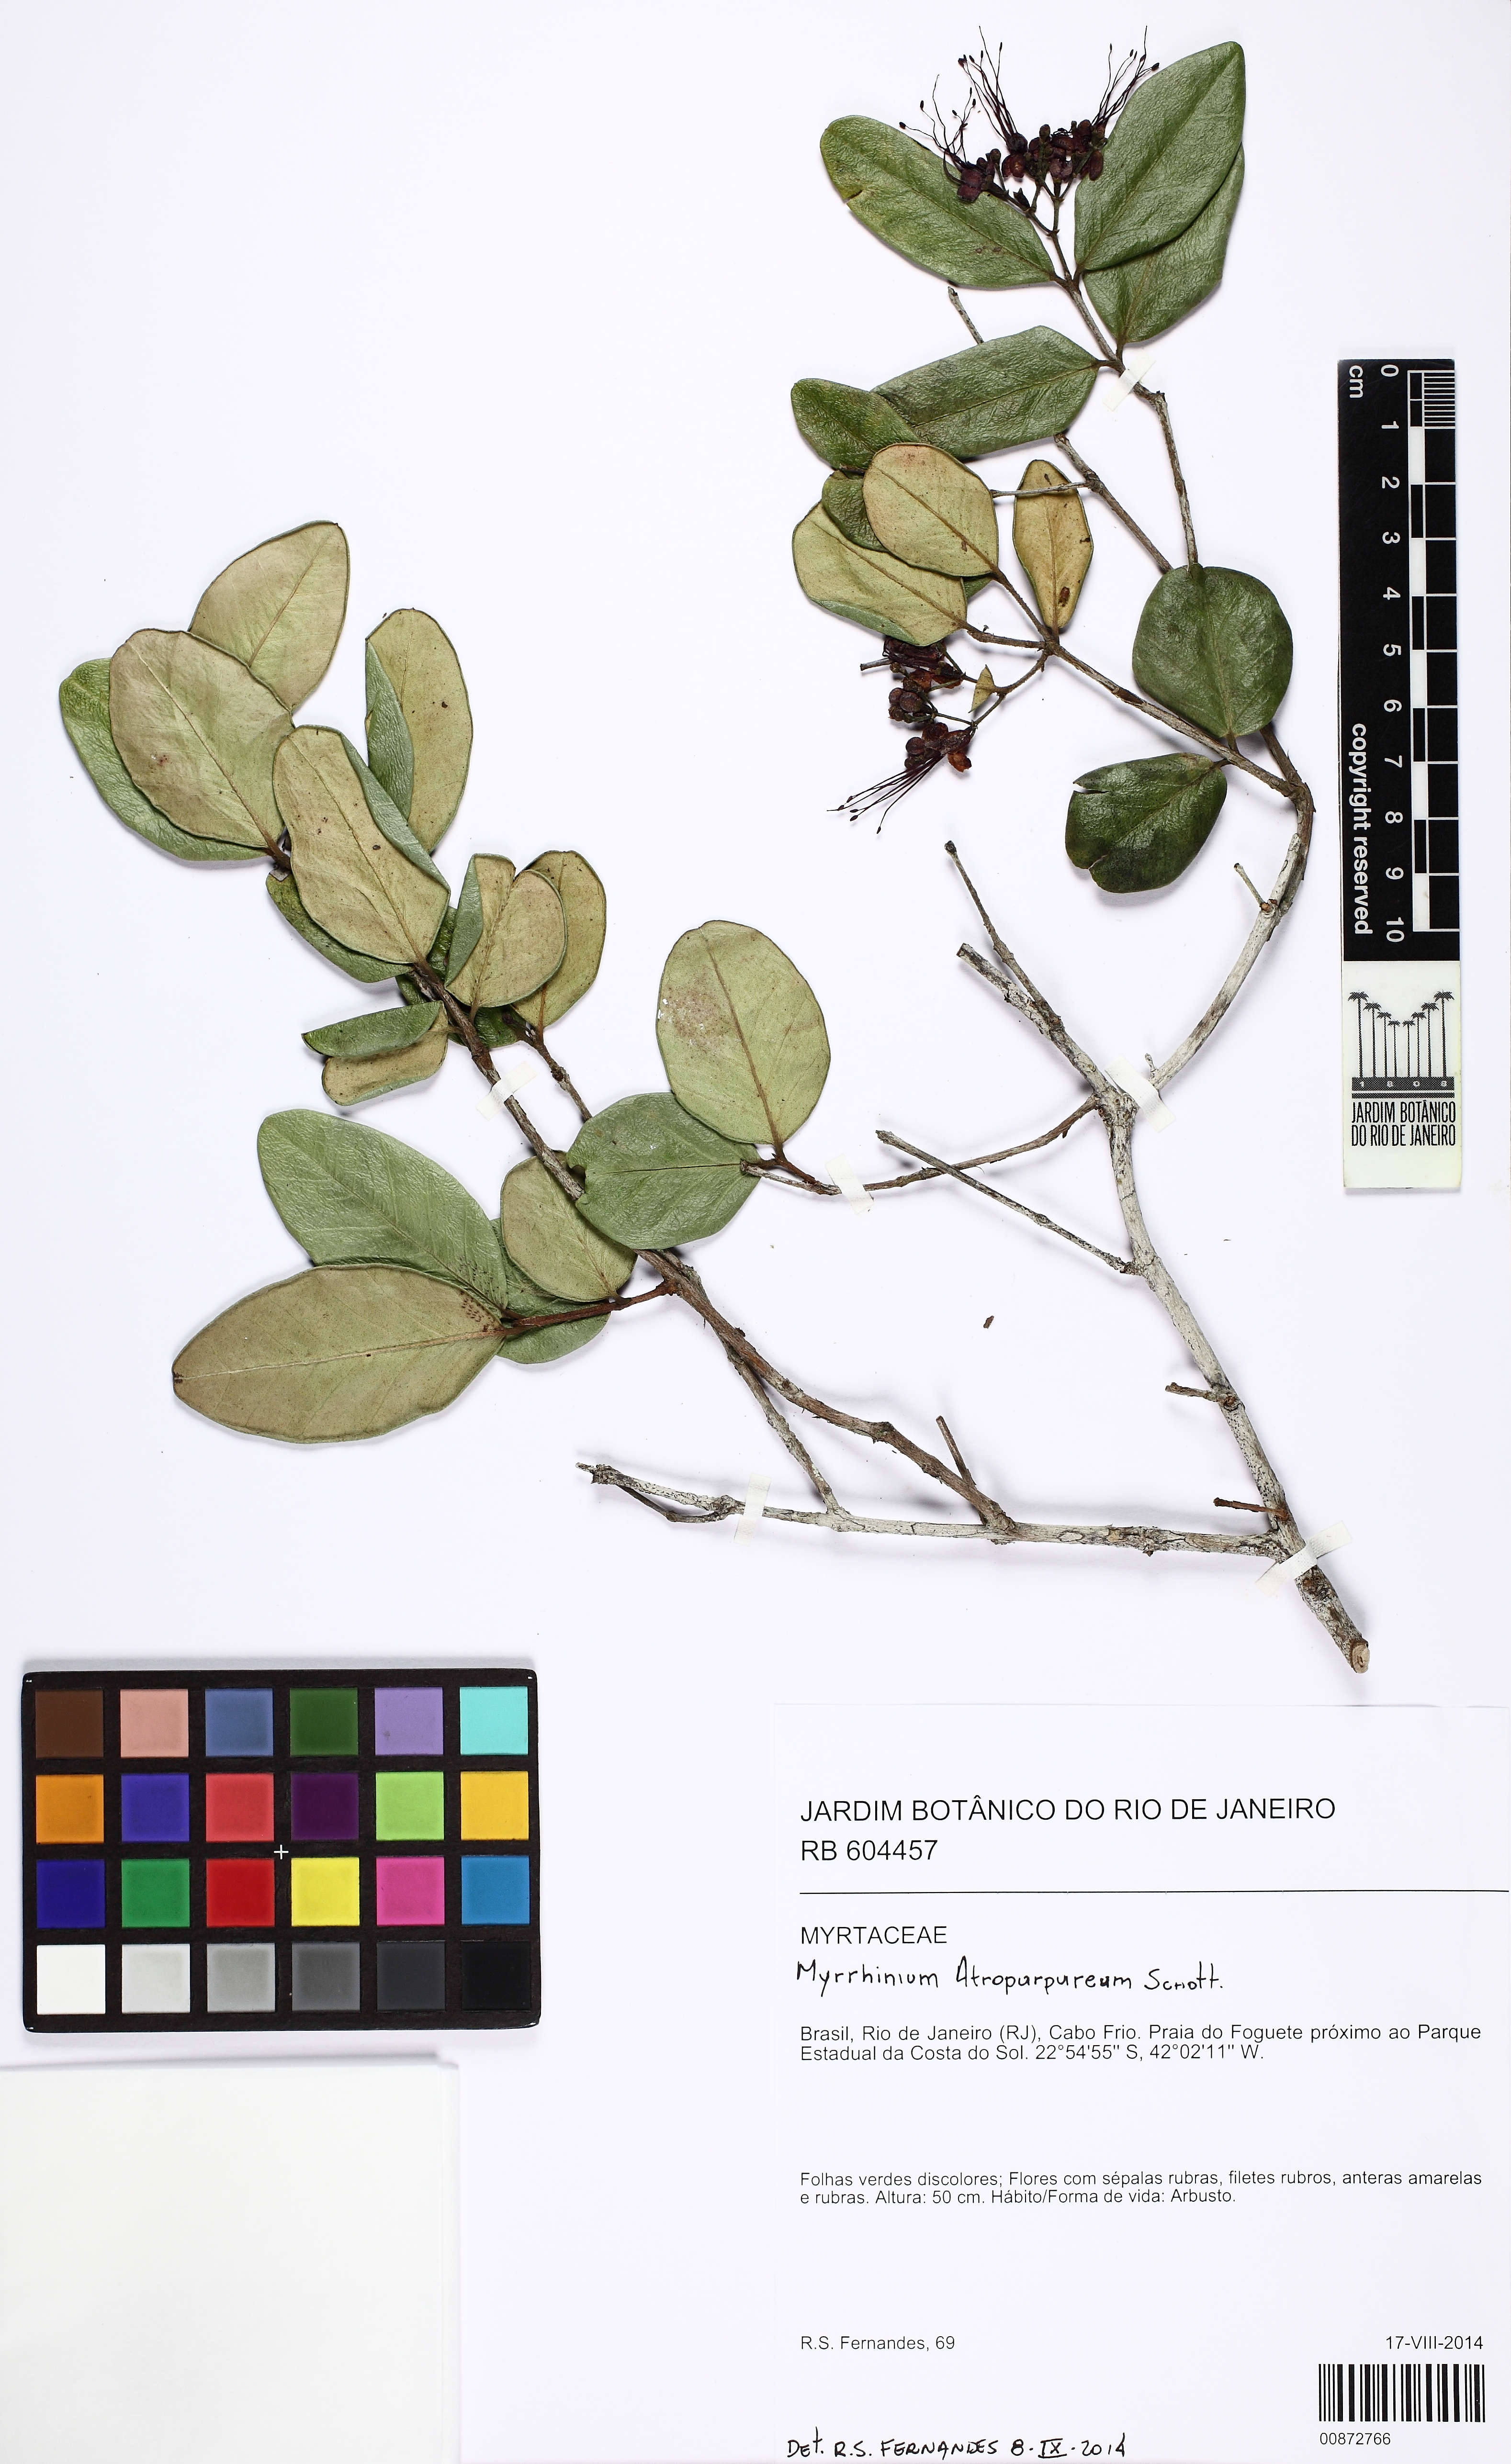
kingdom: Plantae
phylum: Tracheophyta
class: Magnoliopsida
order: Myrtales
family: Myrtaceae
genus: Myrrhinium
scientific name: Myrrhinium atropurpureum
